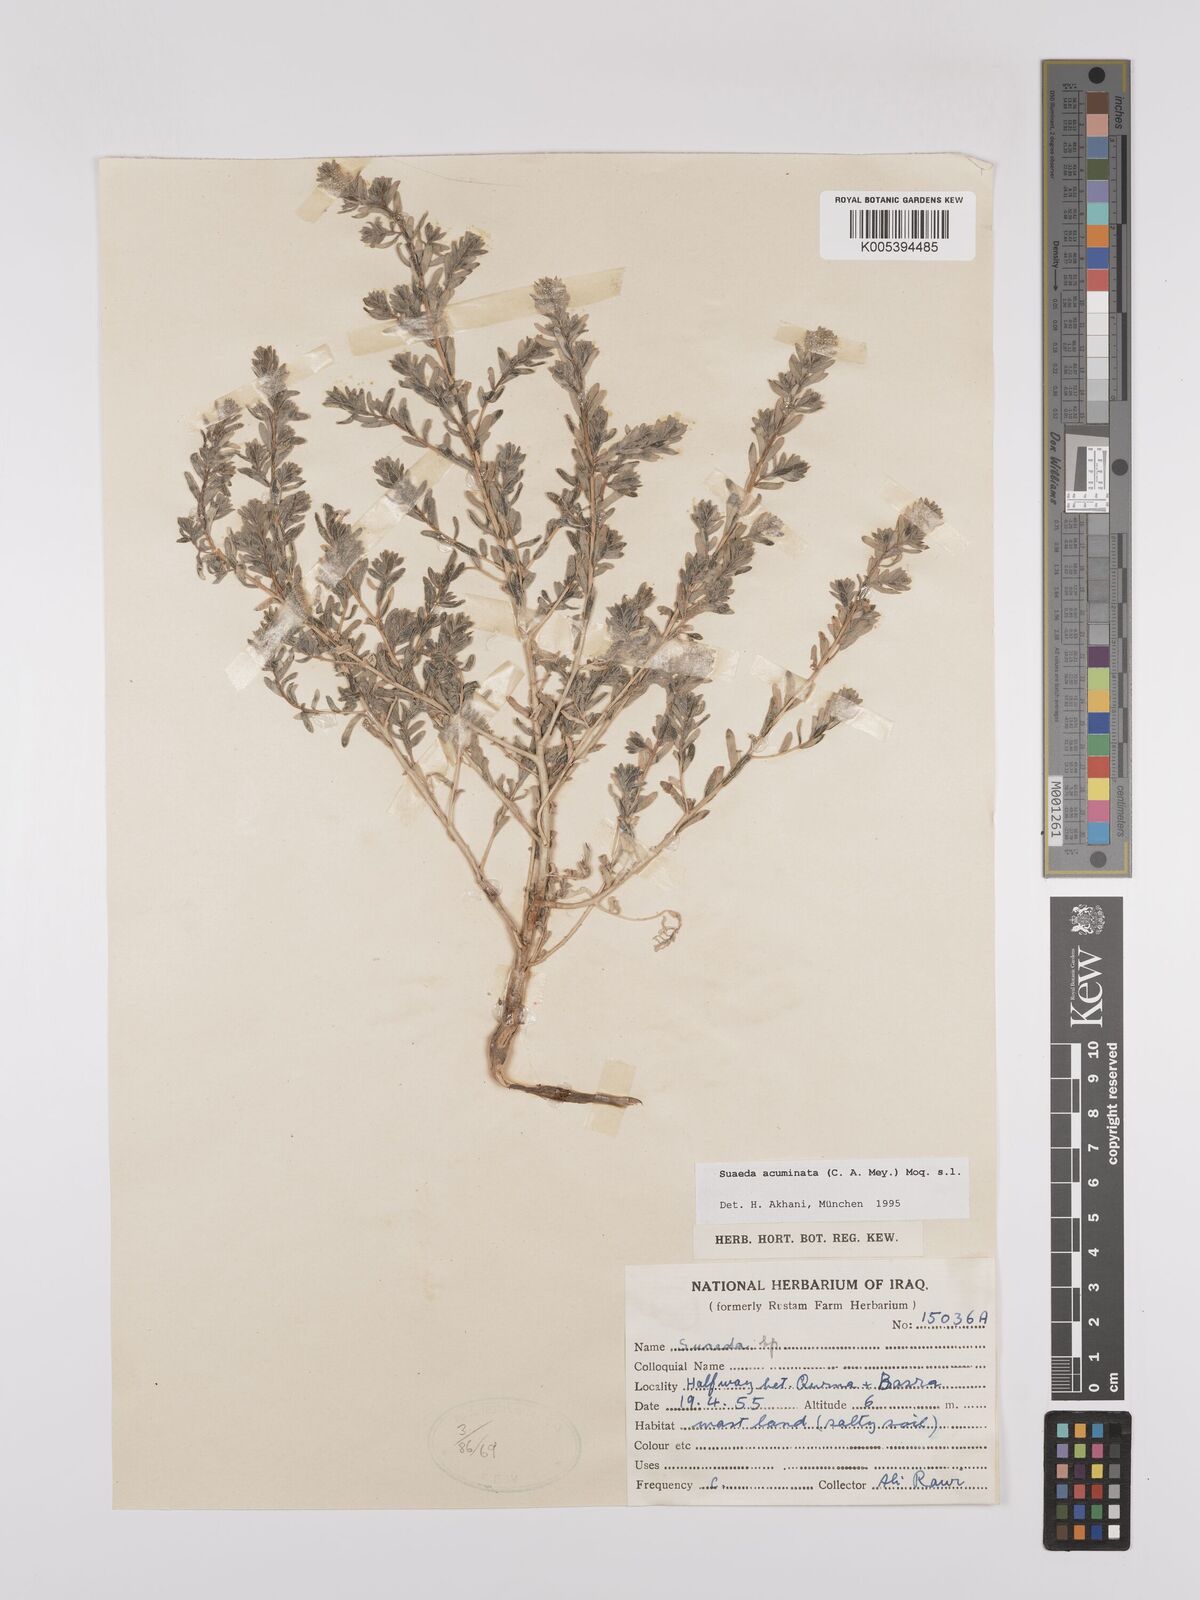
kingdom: Plantae
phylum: Tracheophyta
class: Magnoliopsida
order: Caryophyllales
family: Amaranthaceae
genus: Suaeda
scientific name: Suaeda acuminata
